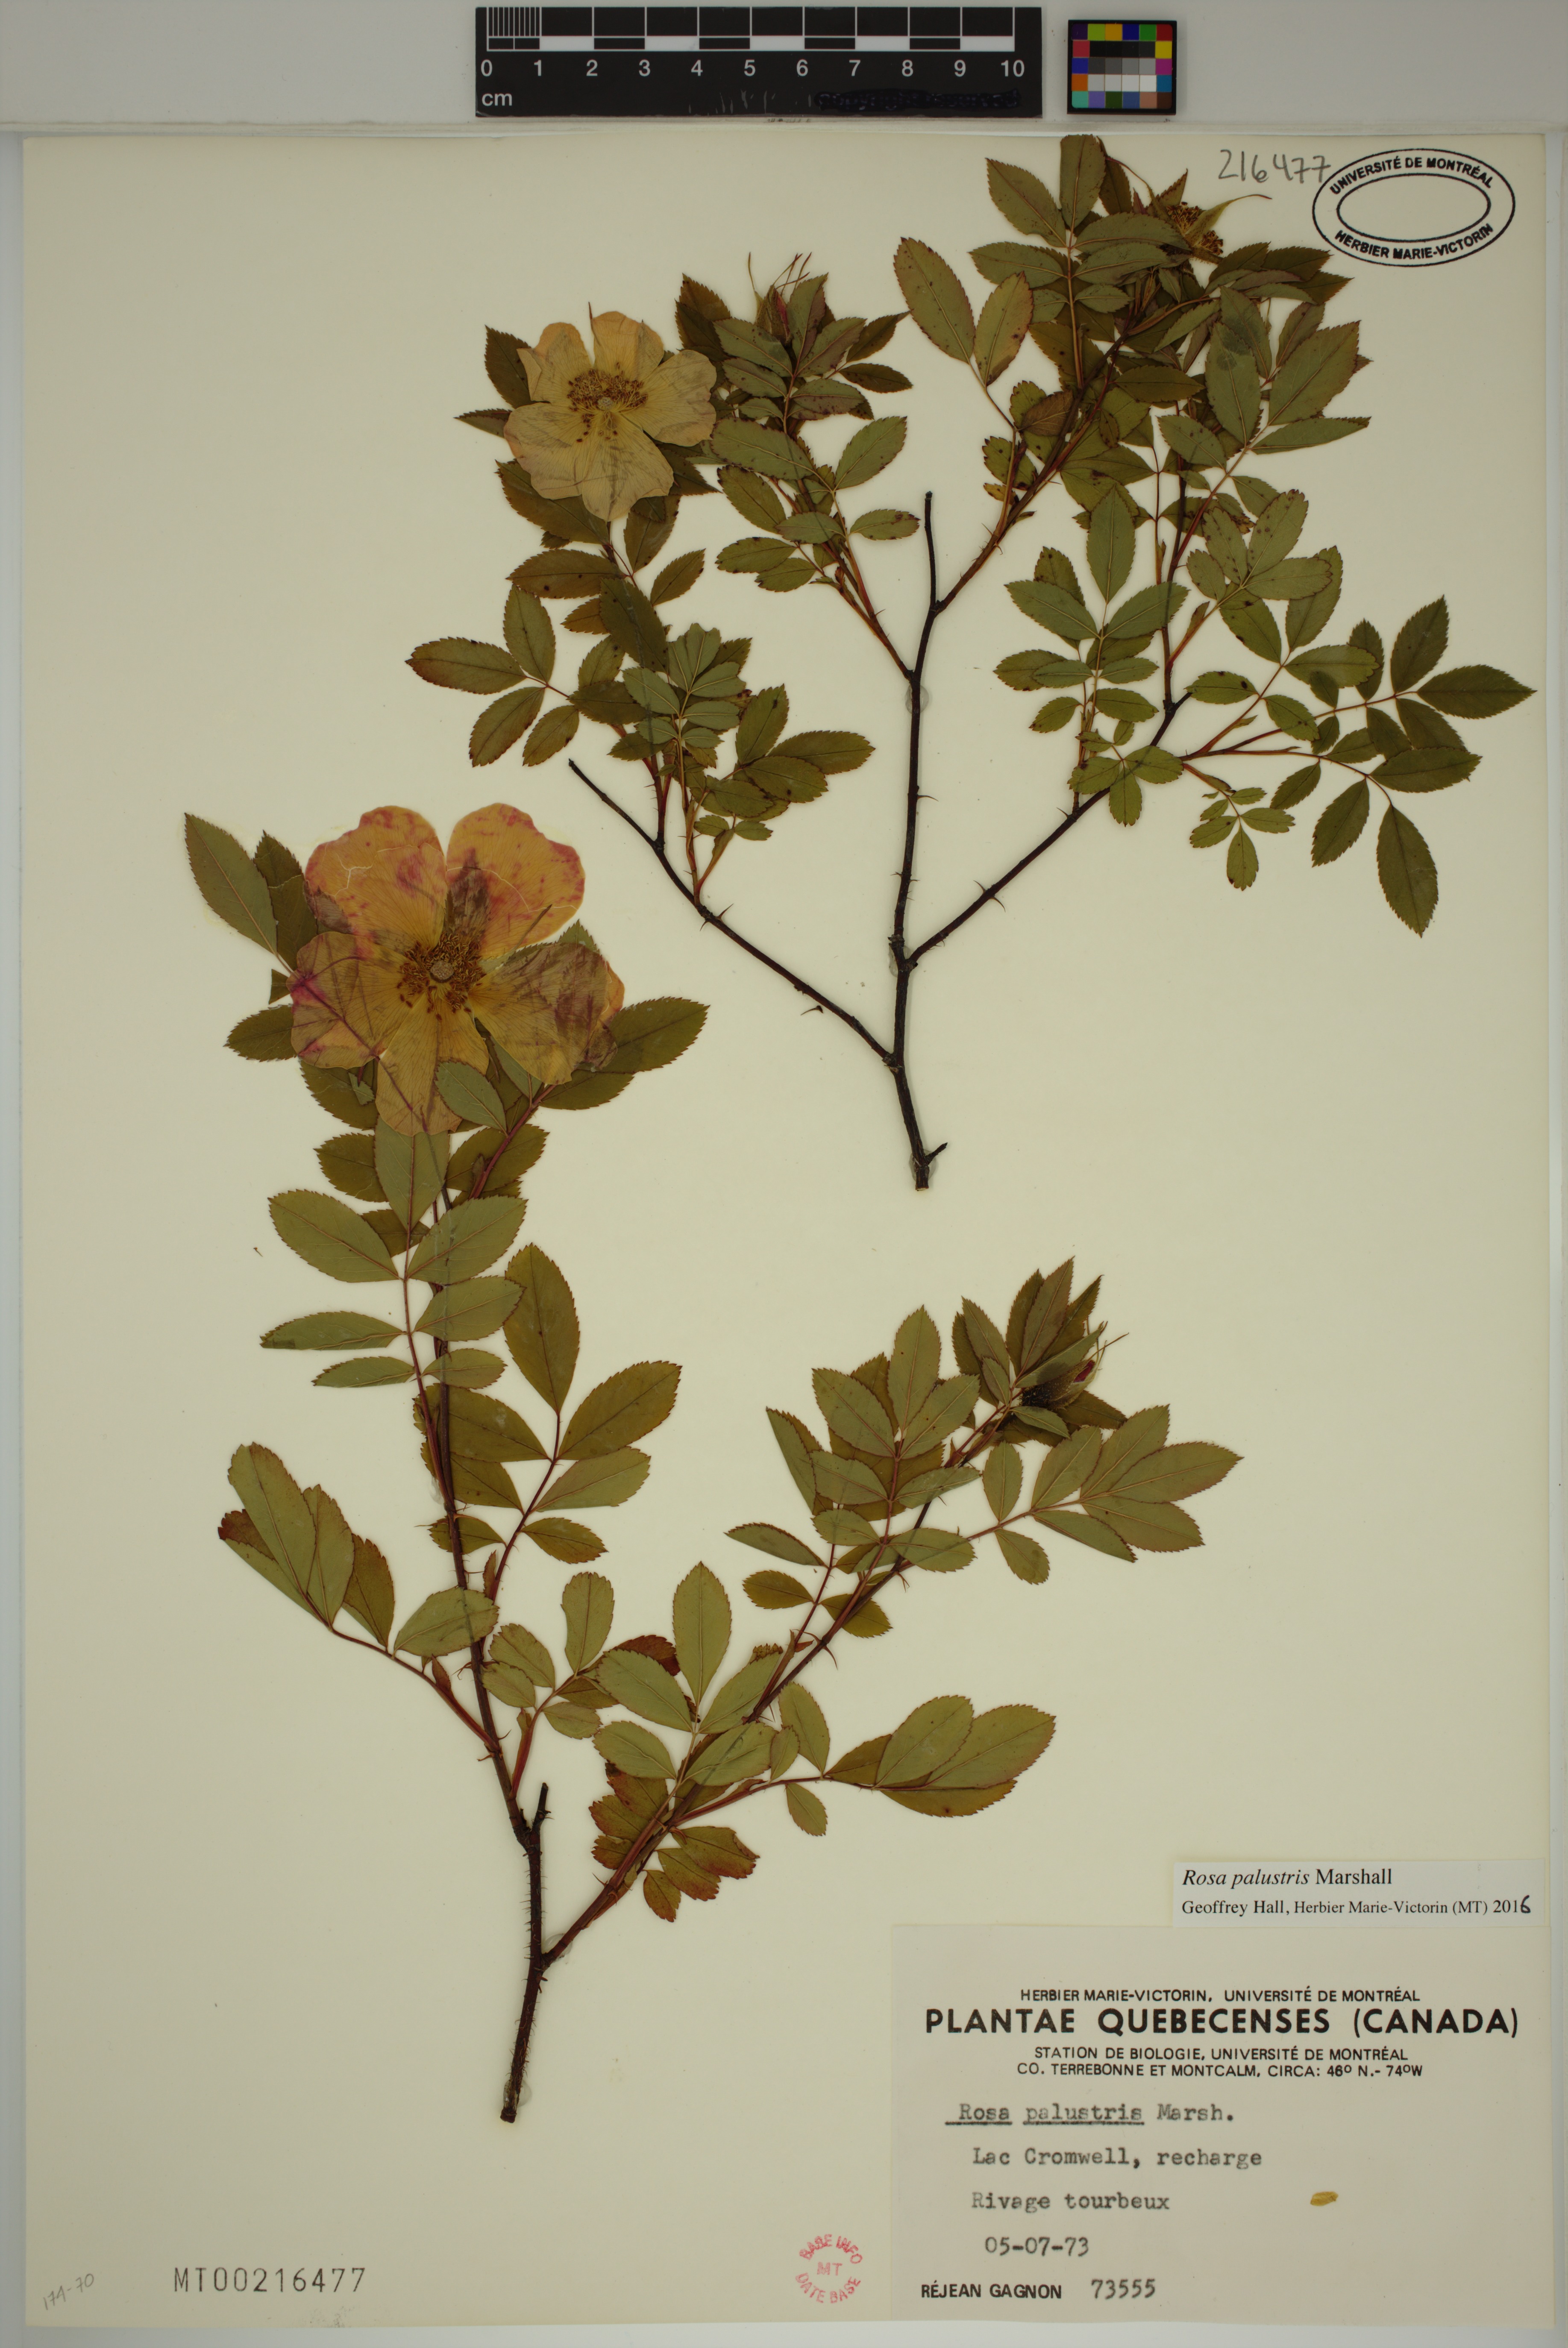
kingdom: Plantae
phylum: Tracheophyta
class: Magnoliopsida
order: Rosales
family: Rosaceae
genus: Rosa
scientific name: Rosa palustris
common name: Swamp rose
